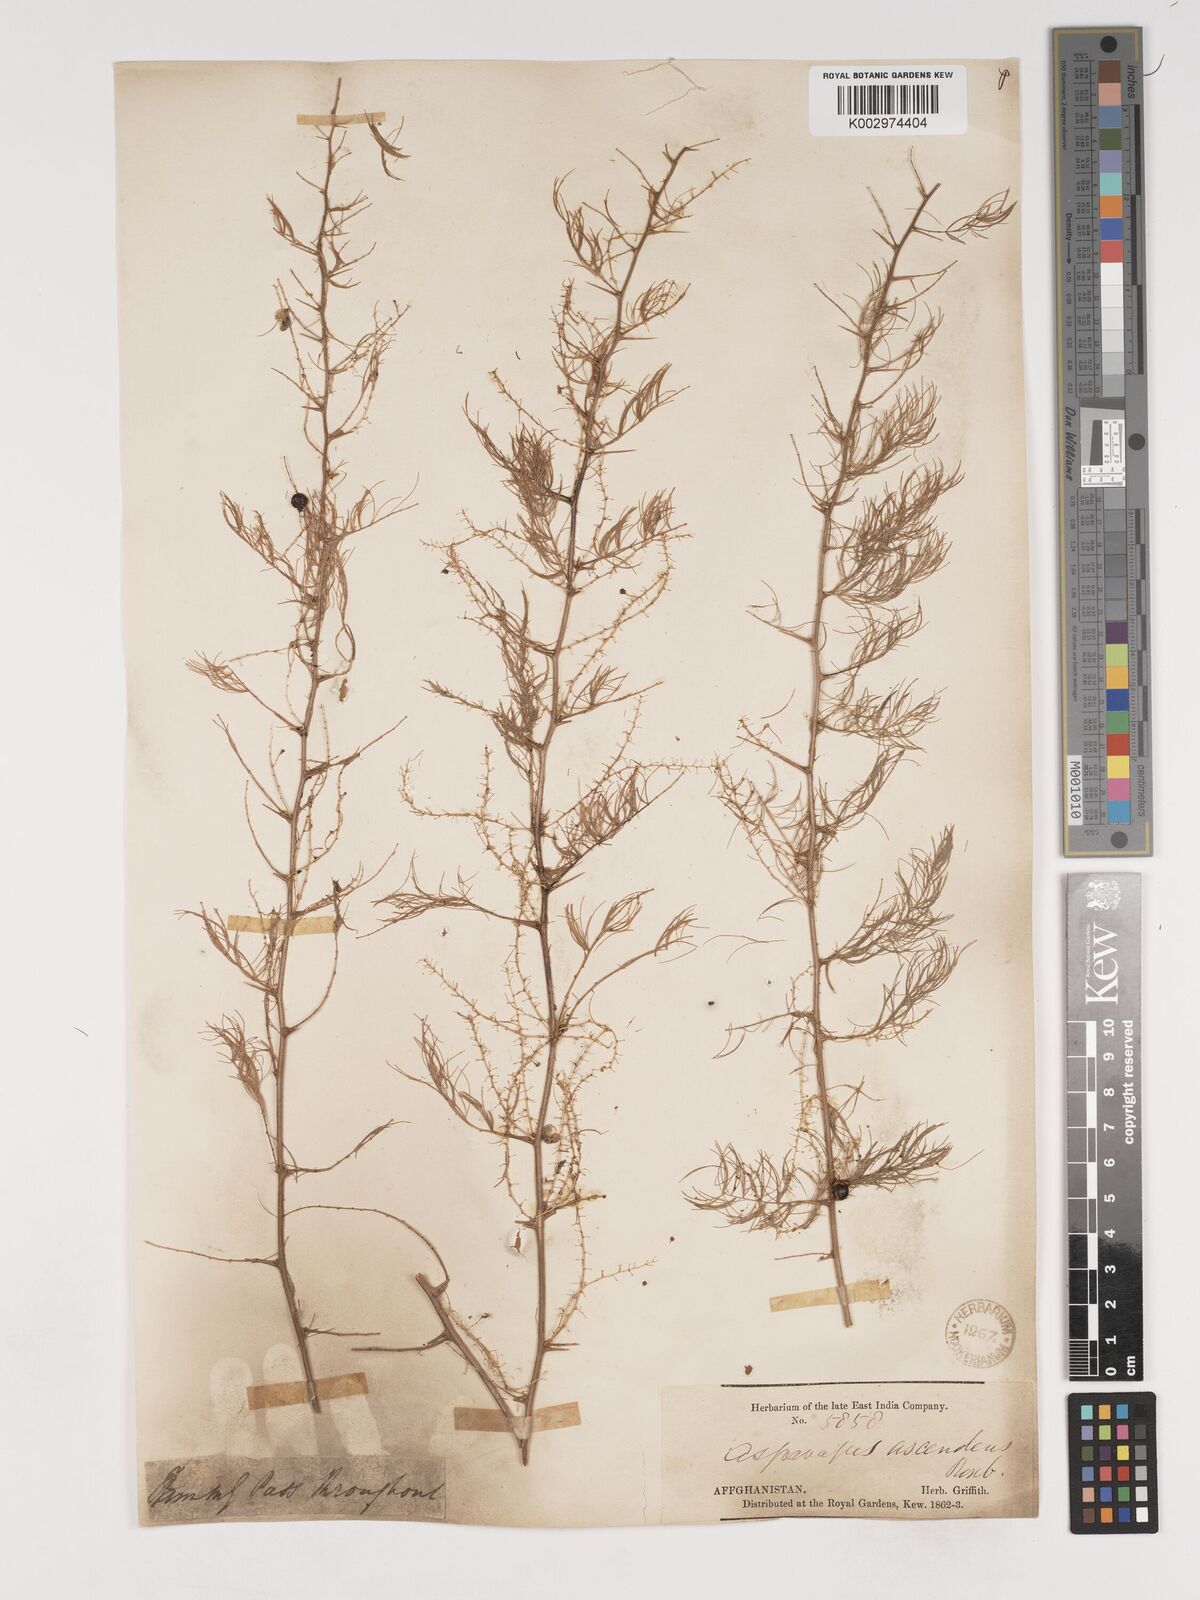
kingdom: Plantae
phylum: Tracheophyta
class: Liliopsida
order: Asparagales
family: Asparagaceae
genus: Asparagus
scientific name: Asparagus adscendens
